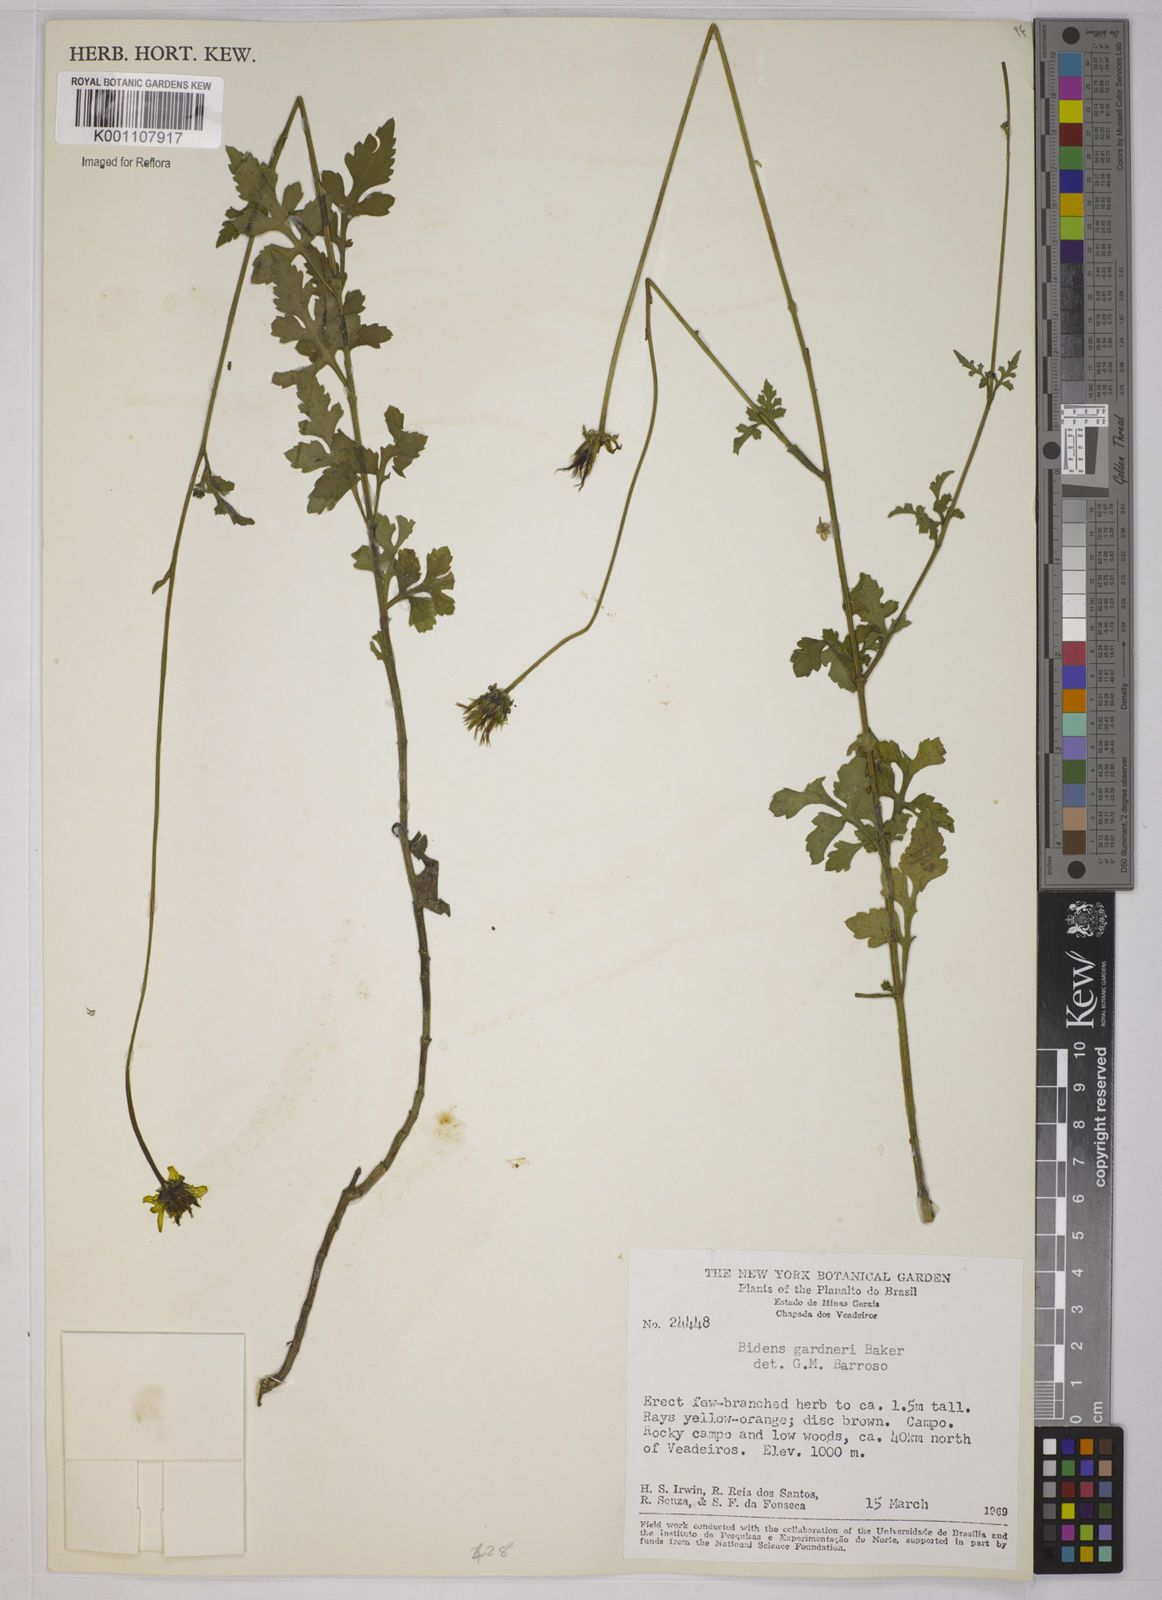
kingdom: Plantae
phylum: Tracheophyta
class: Magnoliopsida
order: Asterales
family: Asteraceae
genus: Bidens
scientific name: Bidens gardneri
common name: Ridge beggartick
